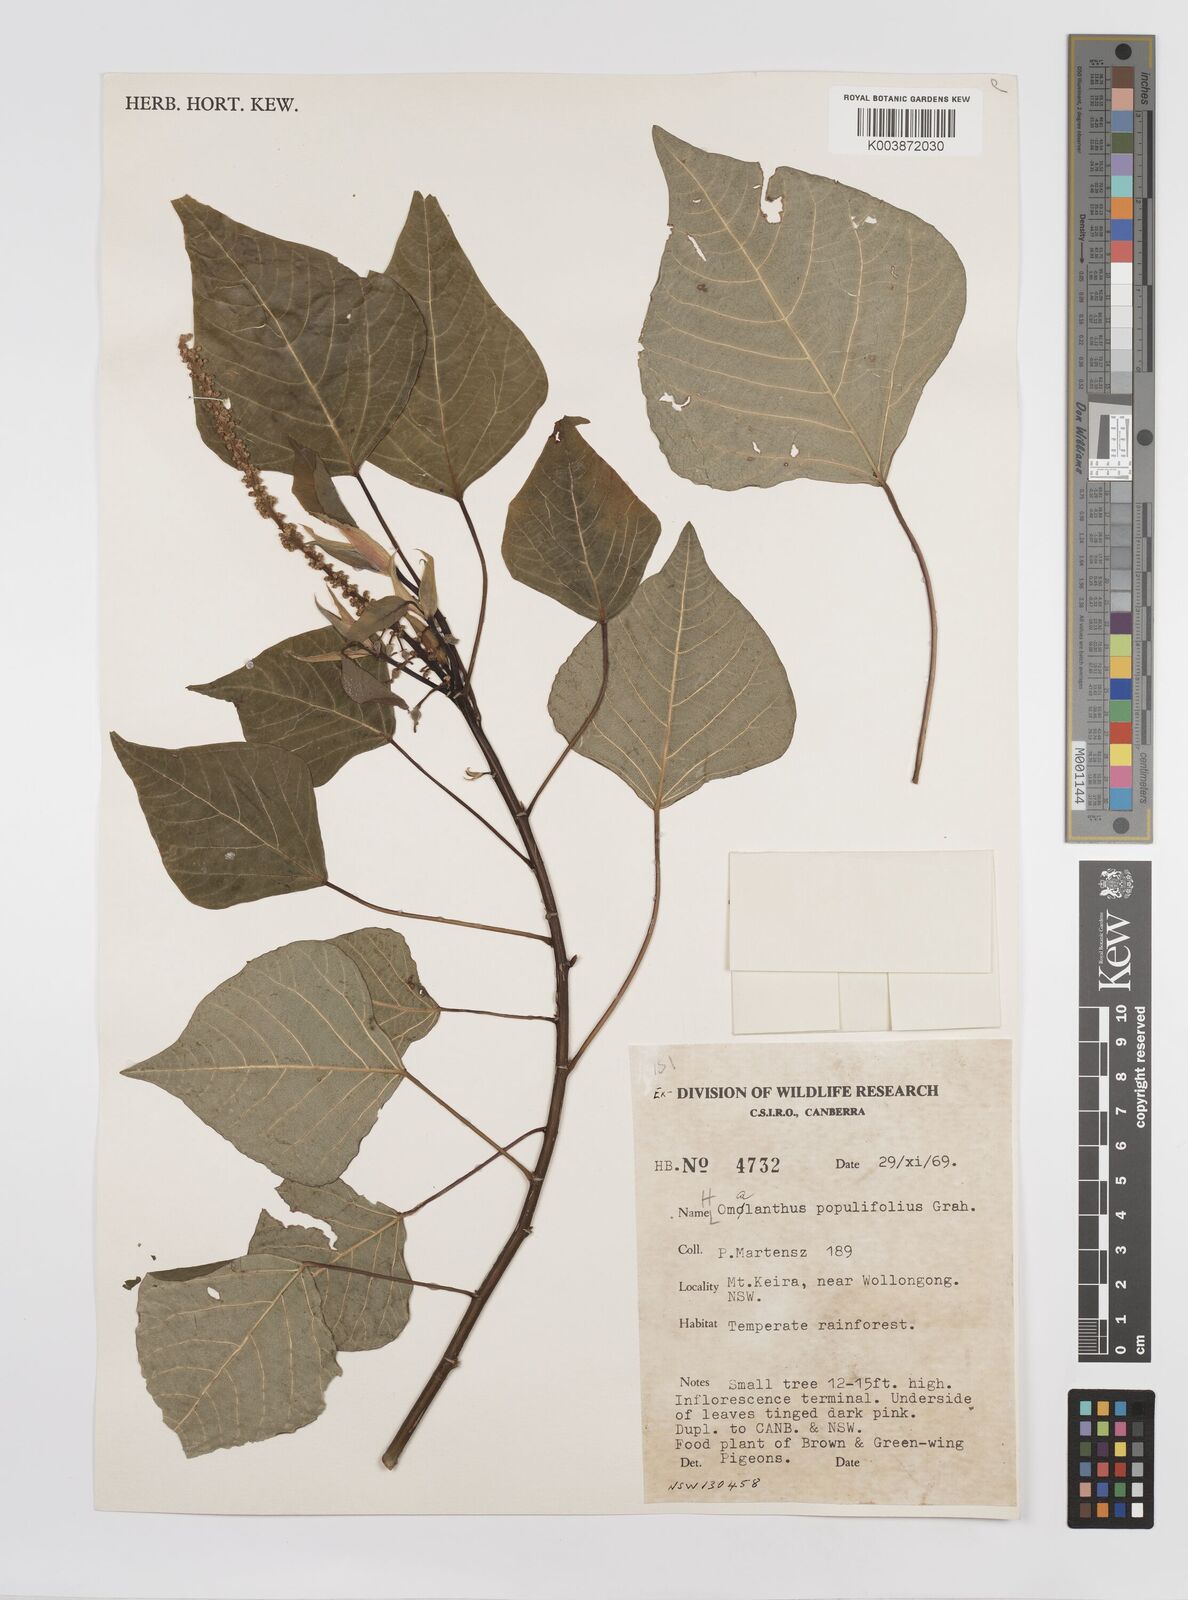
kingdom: Plantae
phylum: Tracheophyta
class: Magnoliopsida
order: Malpighiales
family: Euphorbiaceae
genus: Homalanthus
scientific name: Homalanthus populifolius
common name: Queensland poplar
